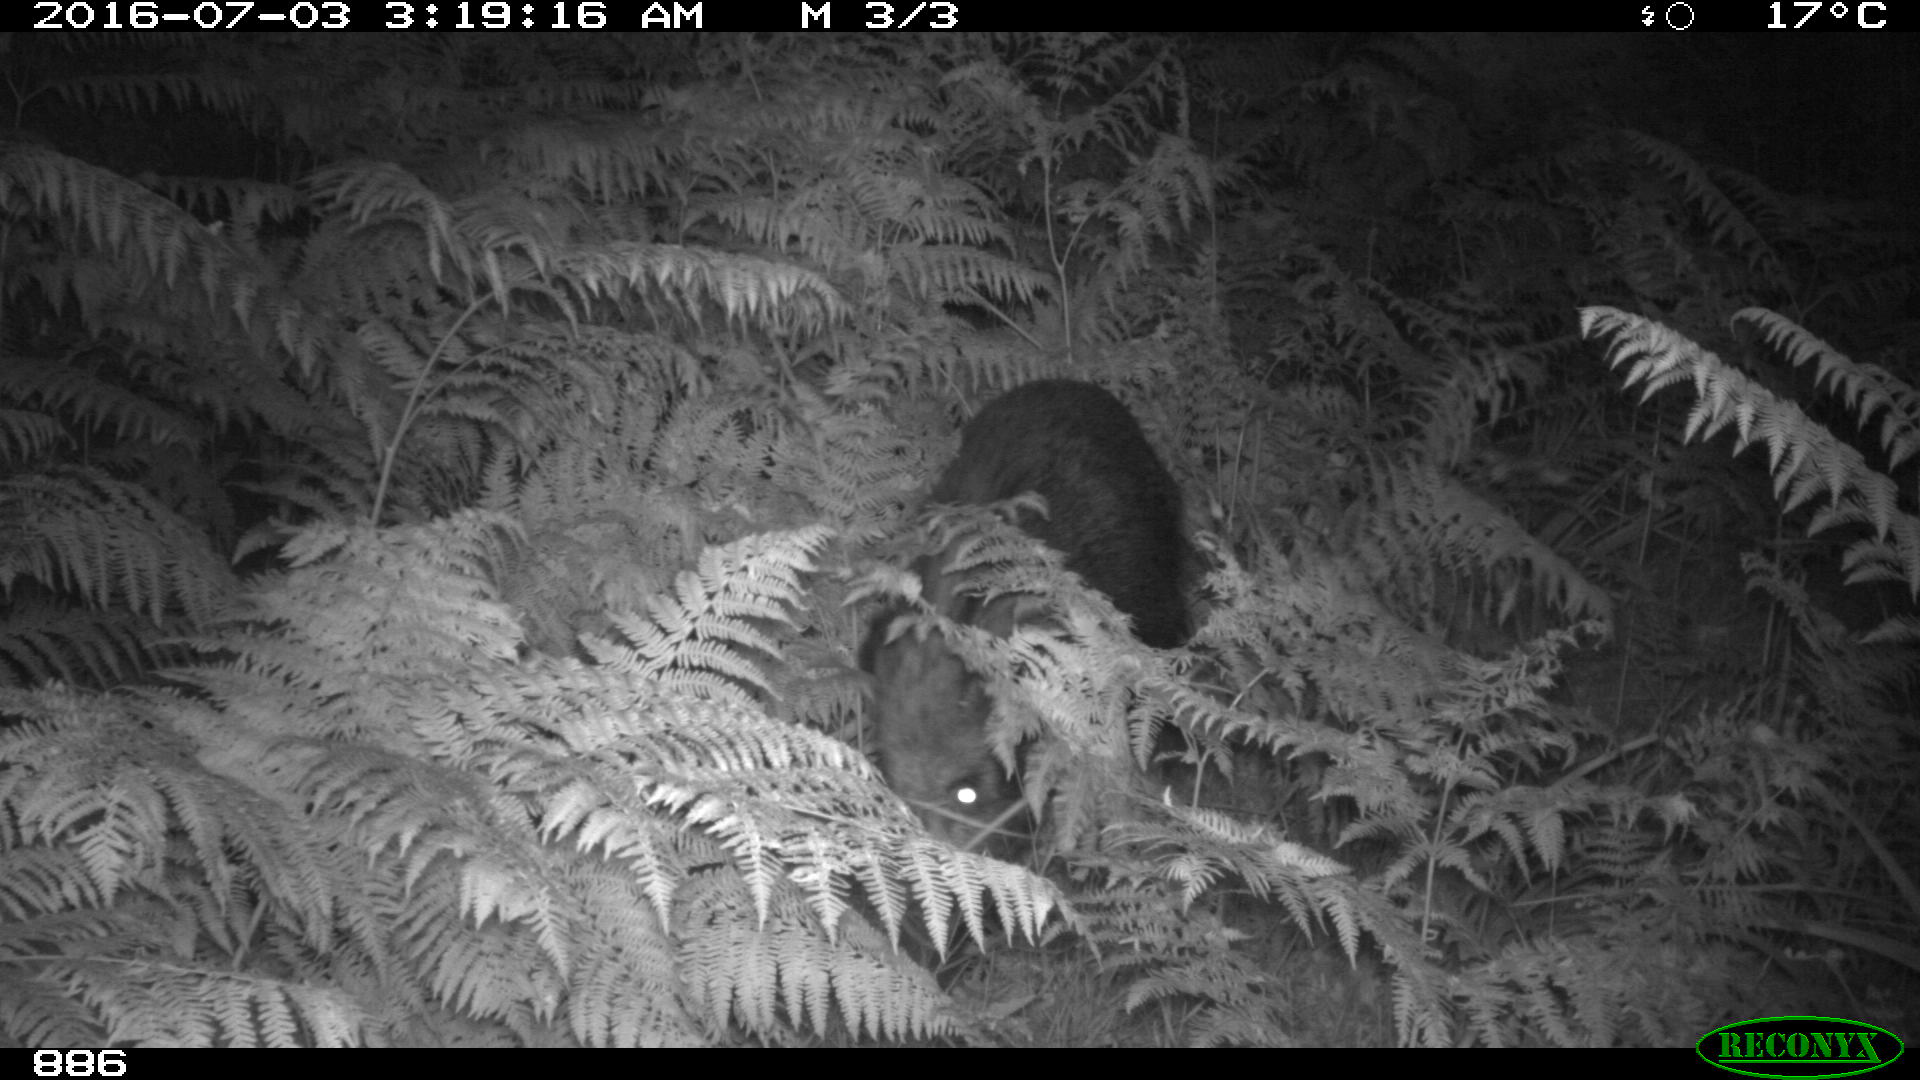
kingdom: Animalia
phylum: Chordata
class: Mammalia
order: Artiodactyla
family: Suidae
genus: Sus
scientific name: Sus scrofa
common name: Wild boar
